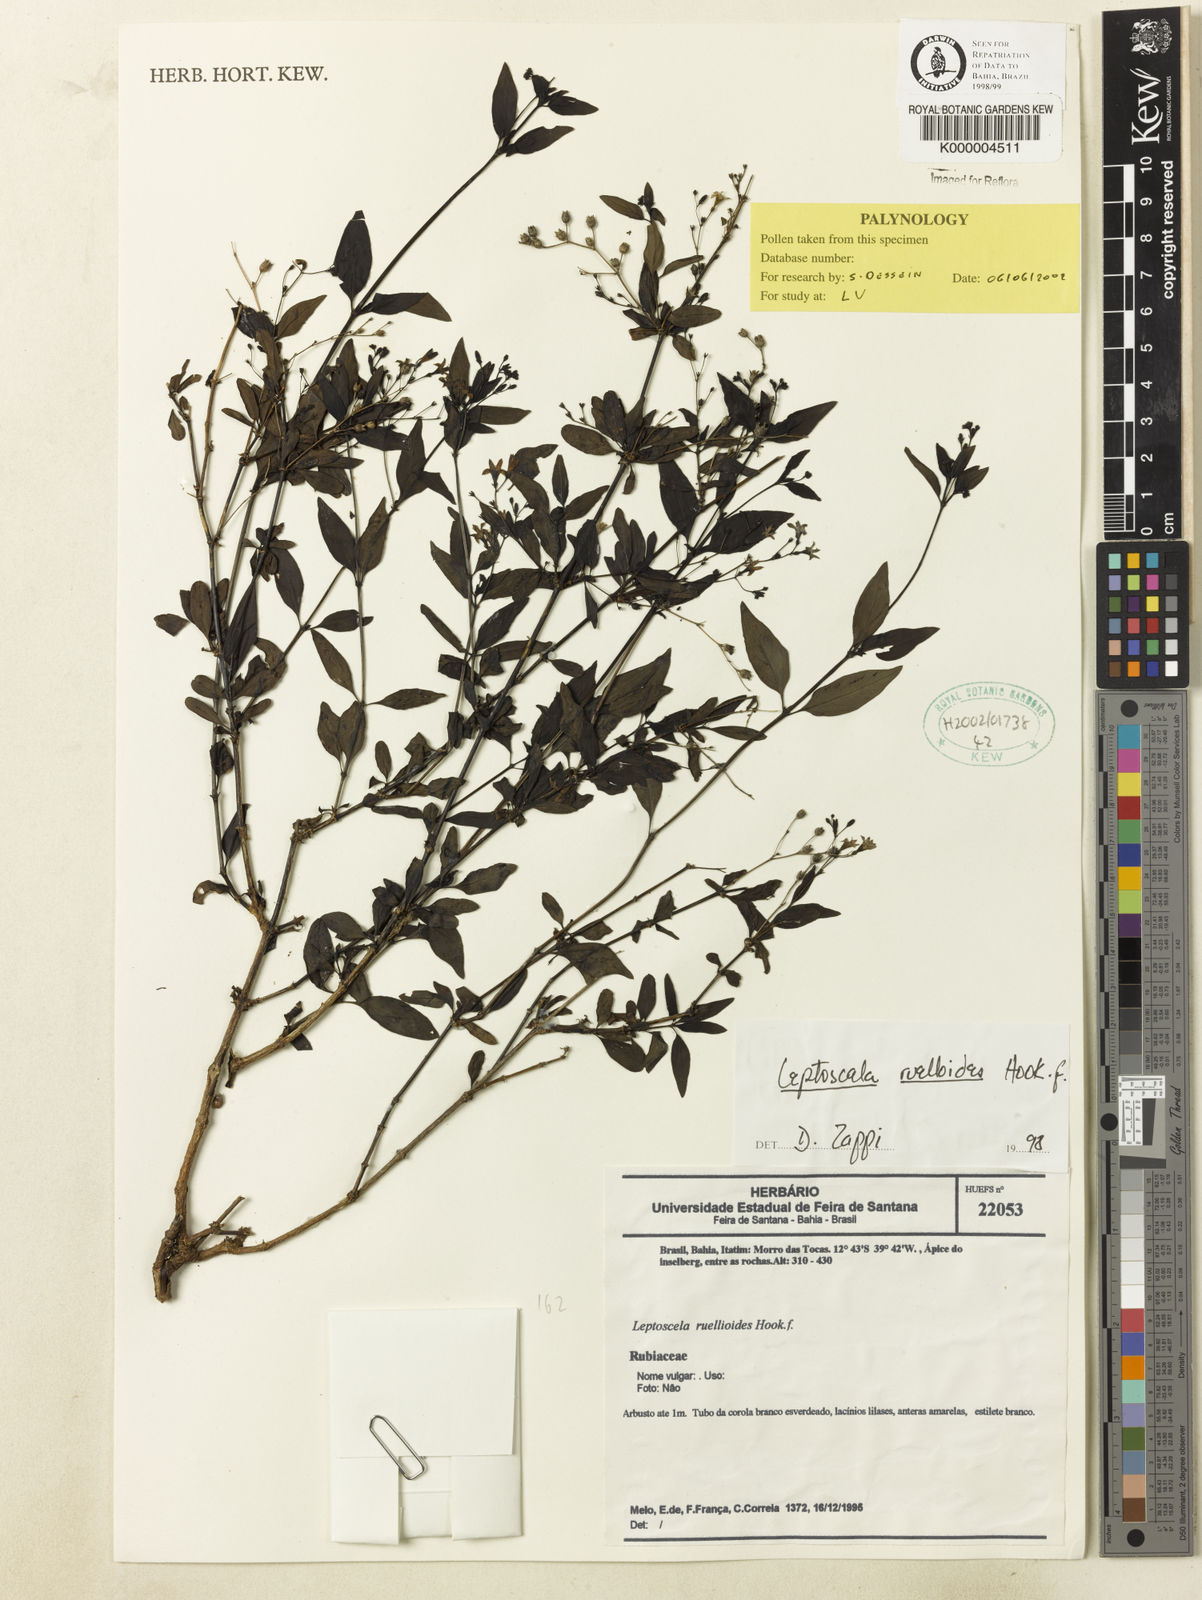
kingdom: Plantae
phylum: Tracheophyta
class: Magnoliopsida
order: Gentianales
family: Rubiaceae
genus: Leptoscela
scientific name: Leptoscela
